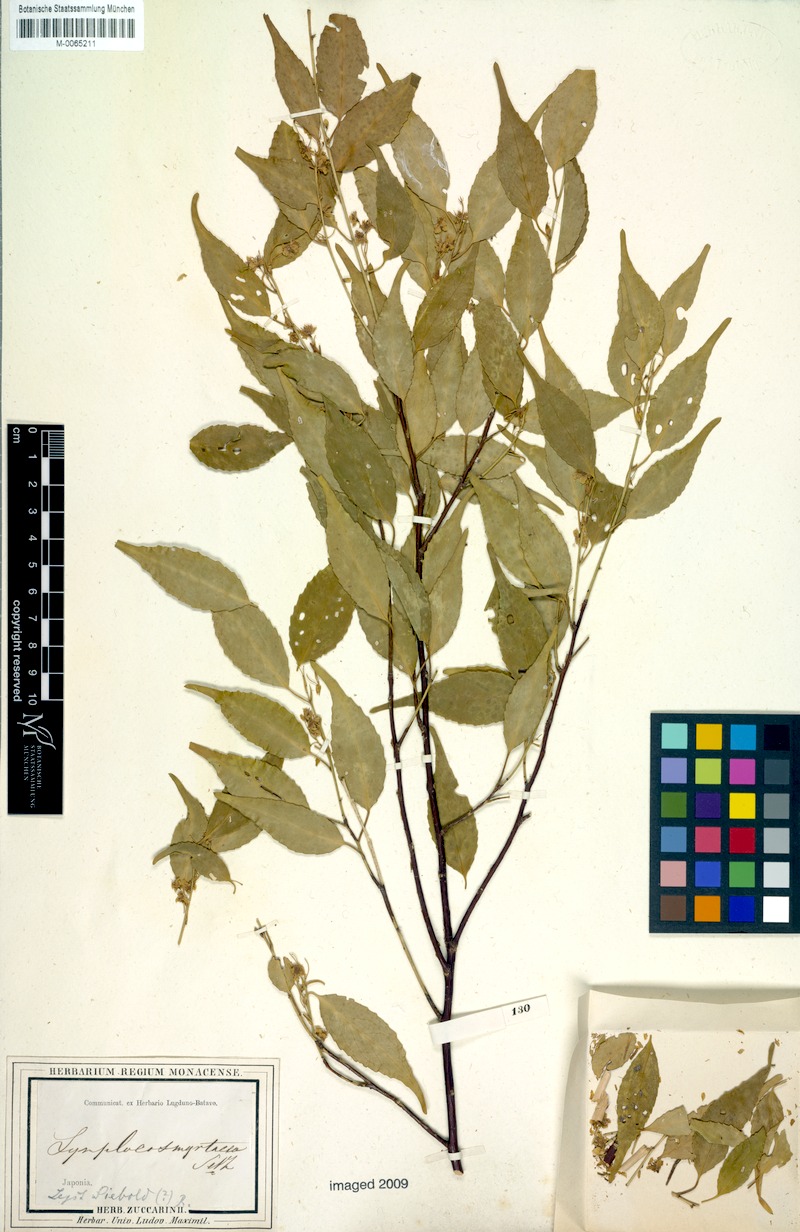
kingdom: Plantae
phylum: Tracheophyta
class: Magnoliopsida
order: Ericales
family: Symplocaceae
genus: Symplocos
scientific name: Symplocos sumuntia
